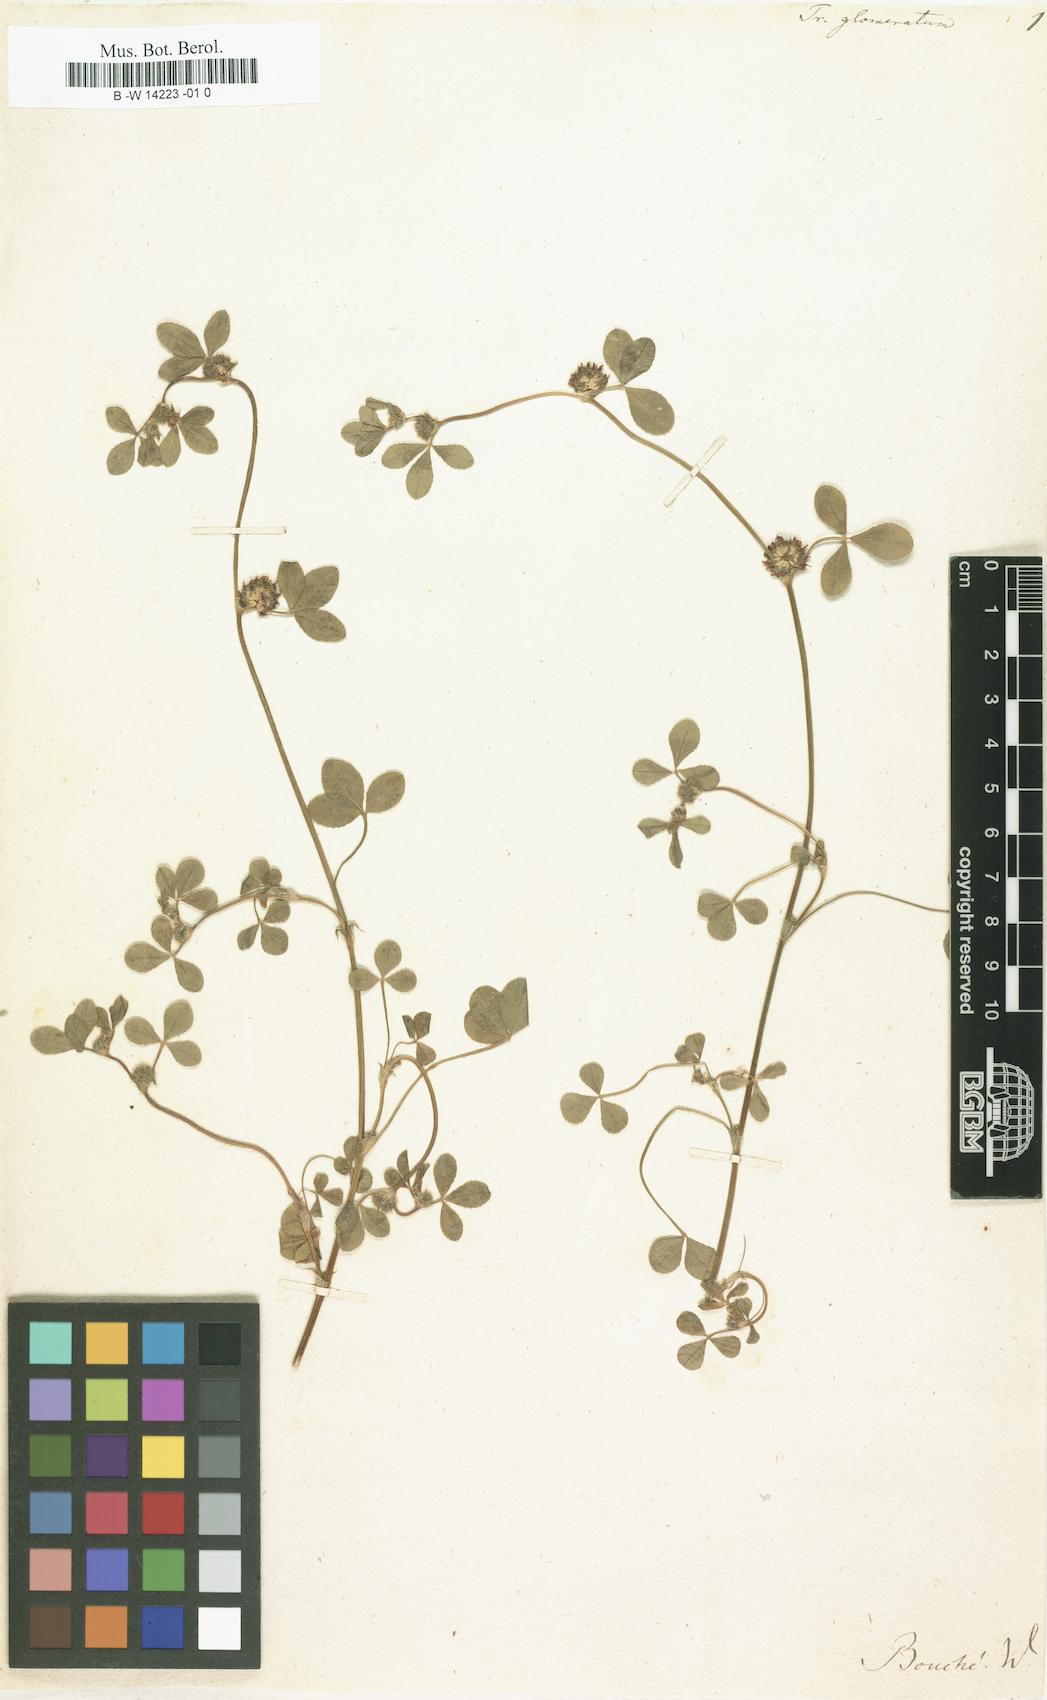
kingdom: Plantae
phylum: Tracheophyta
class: Magnoliopsida
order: Fabales
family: Fabaceae
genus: Trifolium
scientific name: Trifolium glomeratum
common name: Clustered clover
